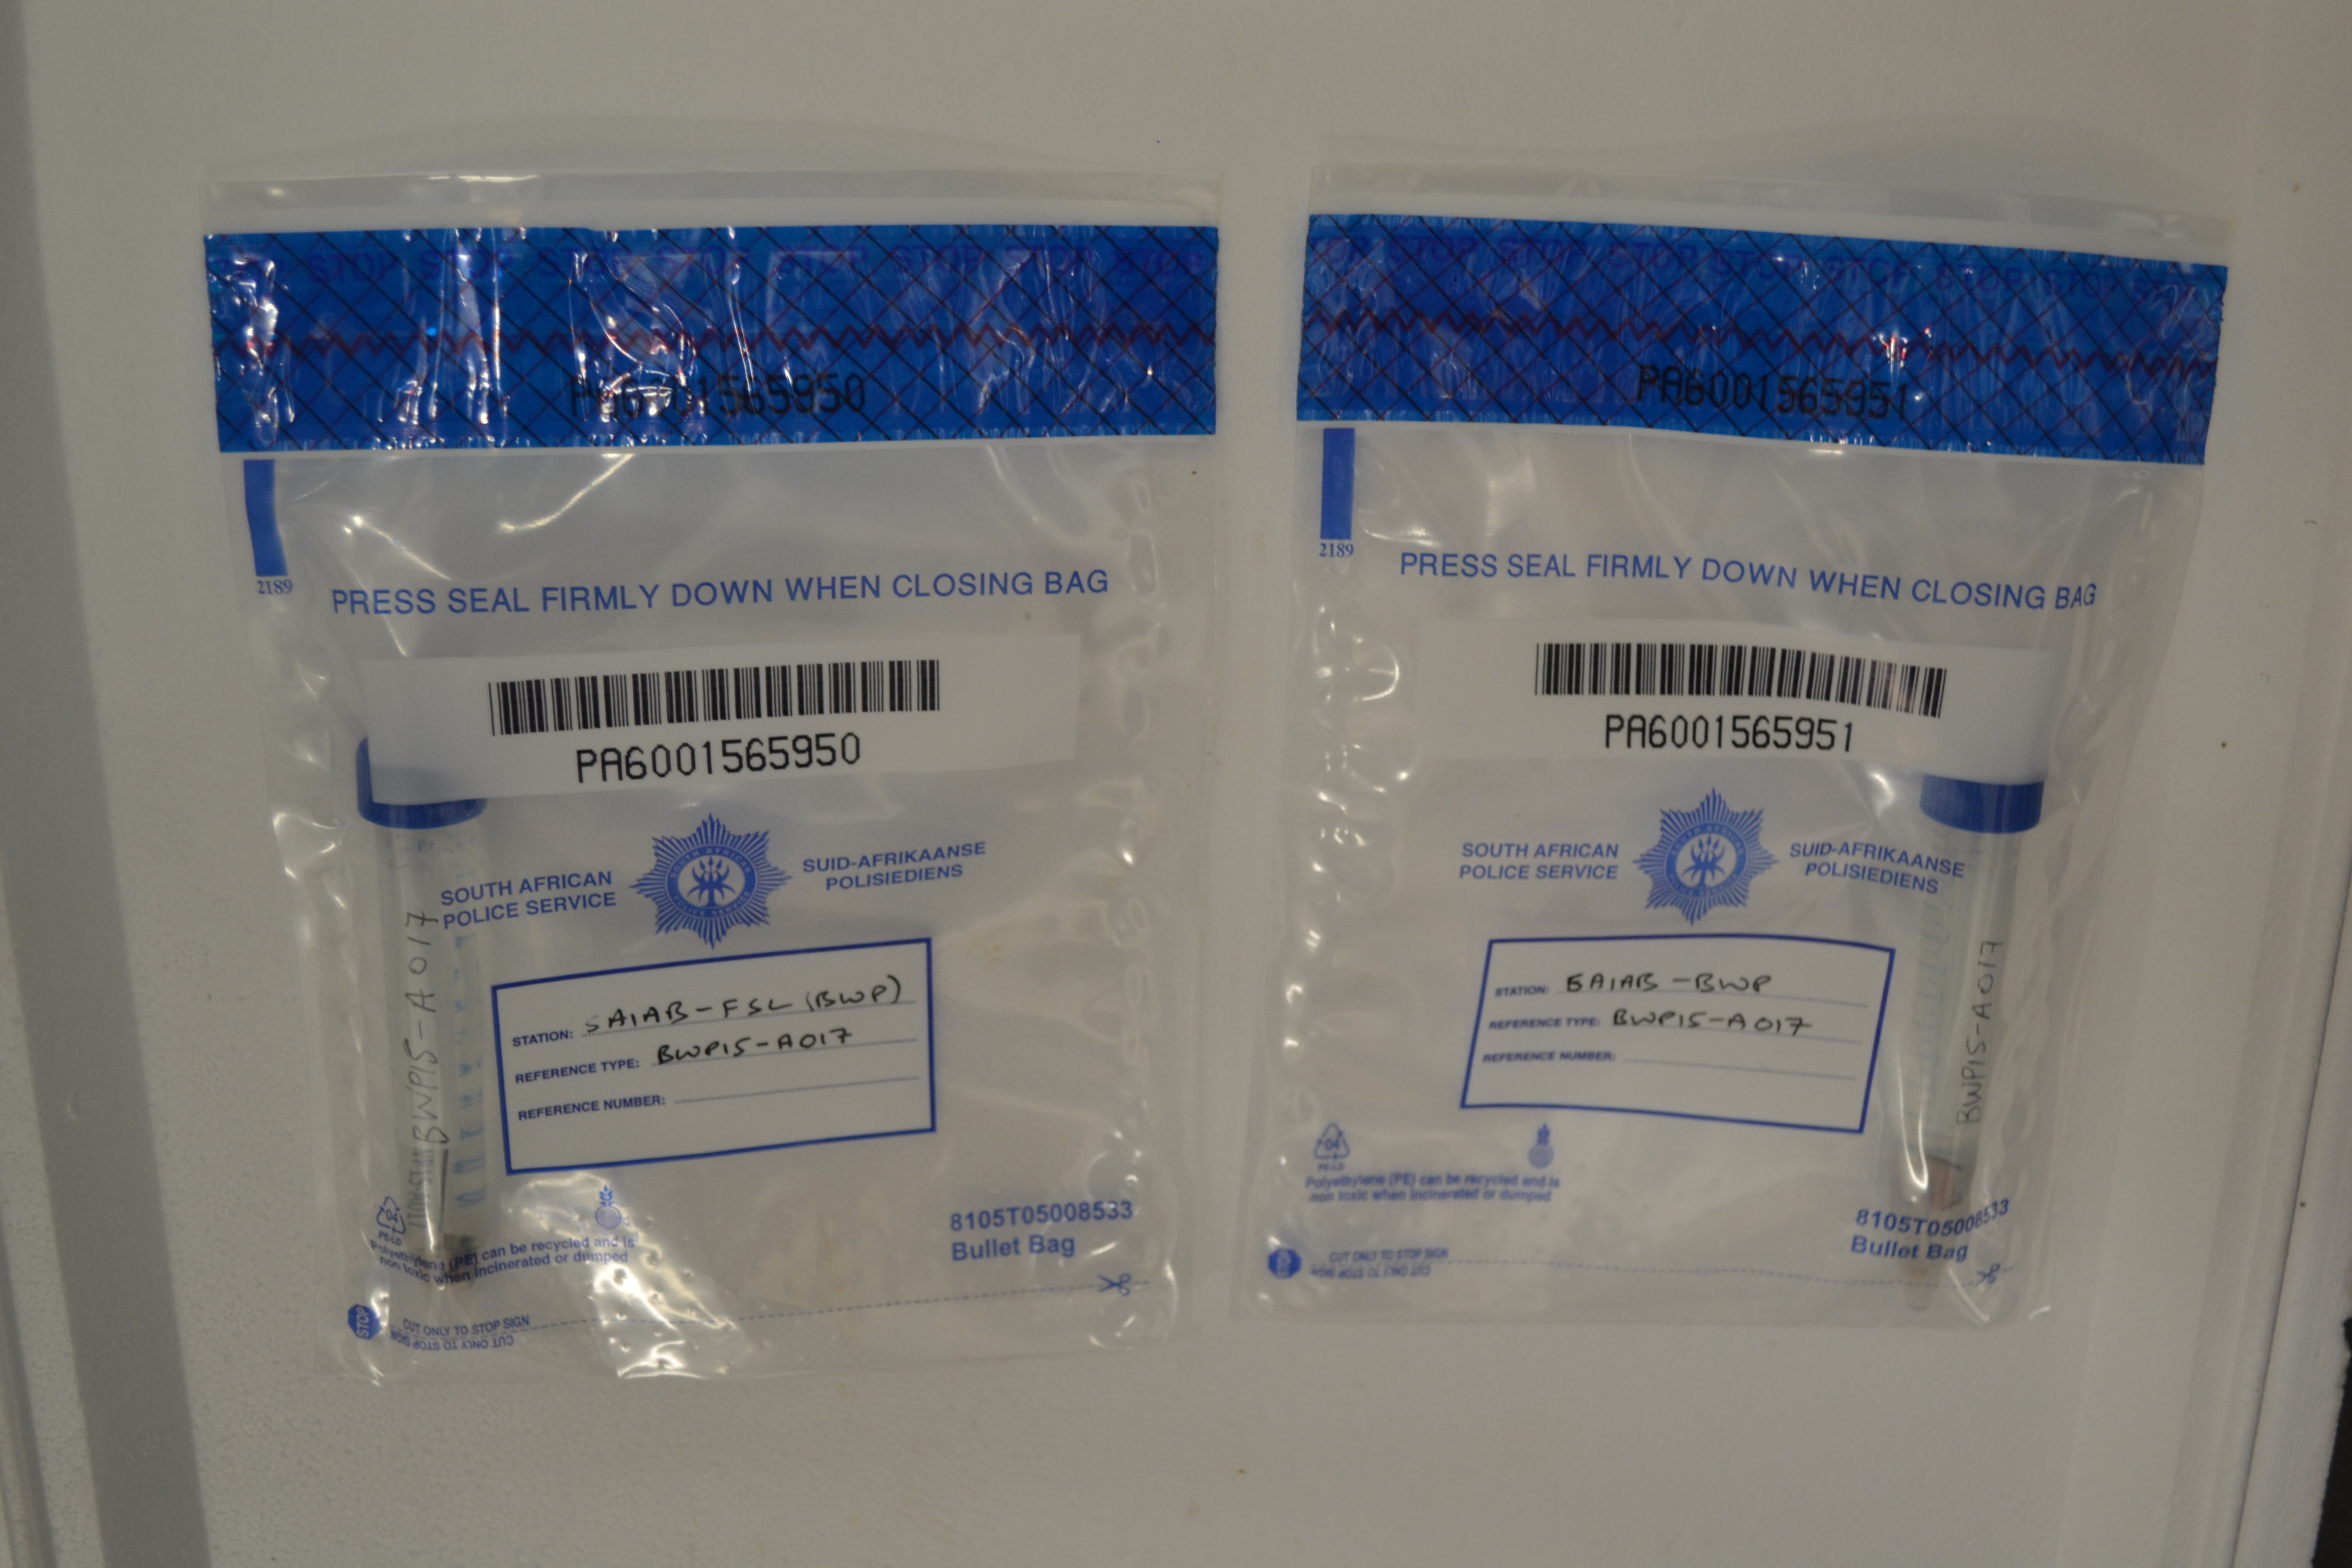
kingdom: Animalia
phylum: Chordata
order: Perciformes
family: Sparidae
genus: Lithognathus
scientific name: Lithognathus lithognathus
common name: White steenbras
